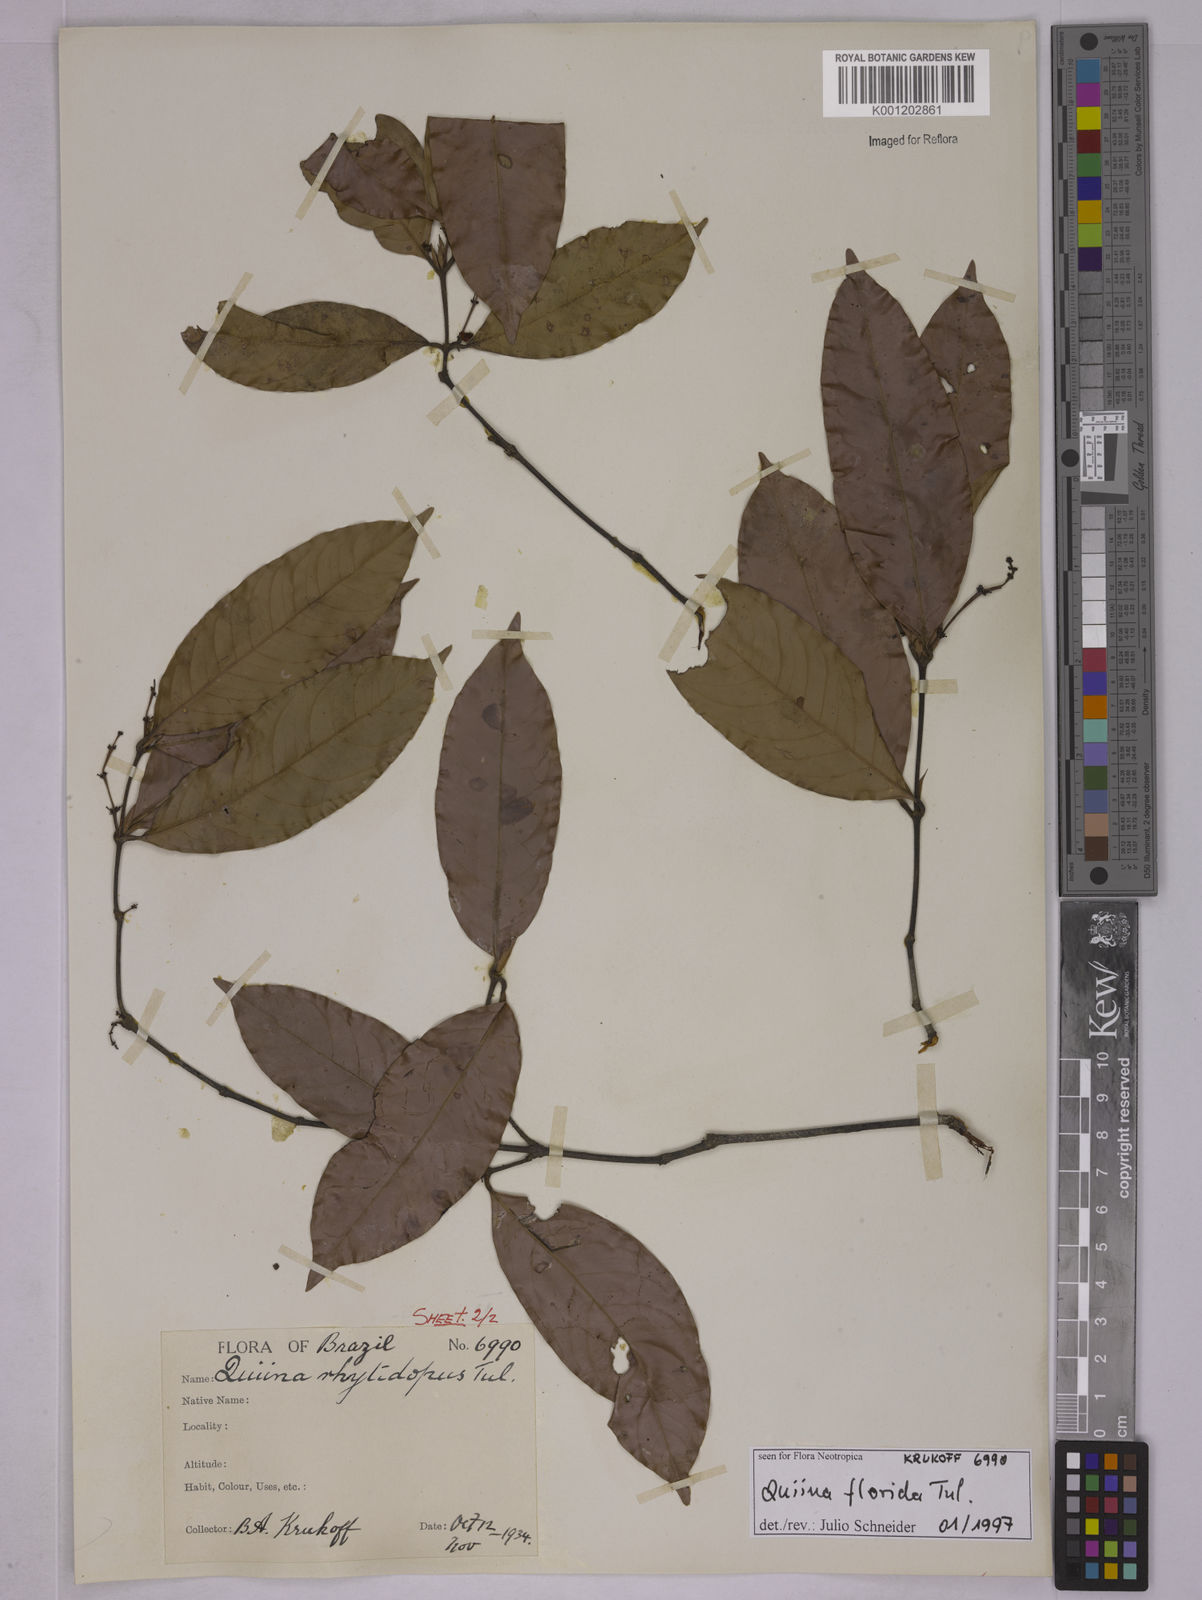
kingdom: Plantae
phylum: Tracheophyta
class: Magnoliopsida
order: Malpighiales
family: Quiinaceae
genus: Quiina
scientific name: Quiina rhytidopus
